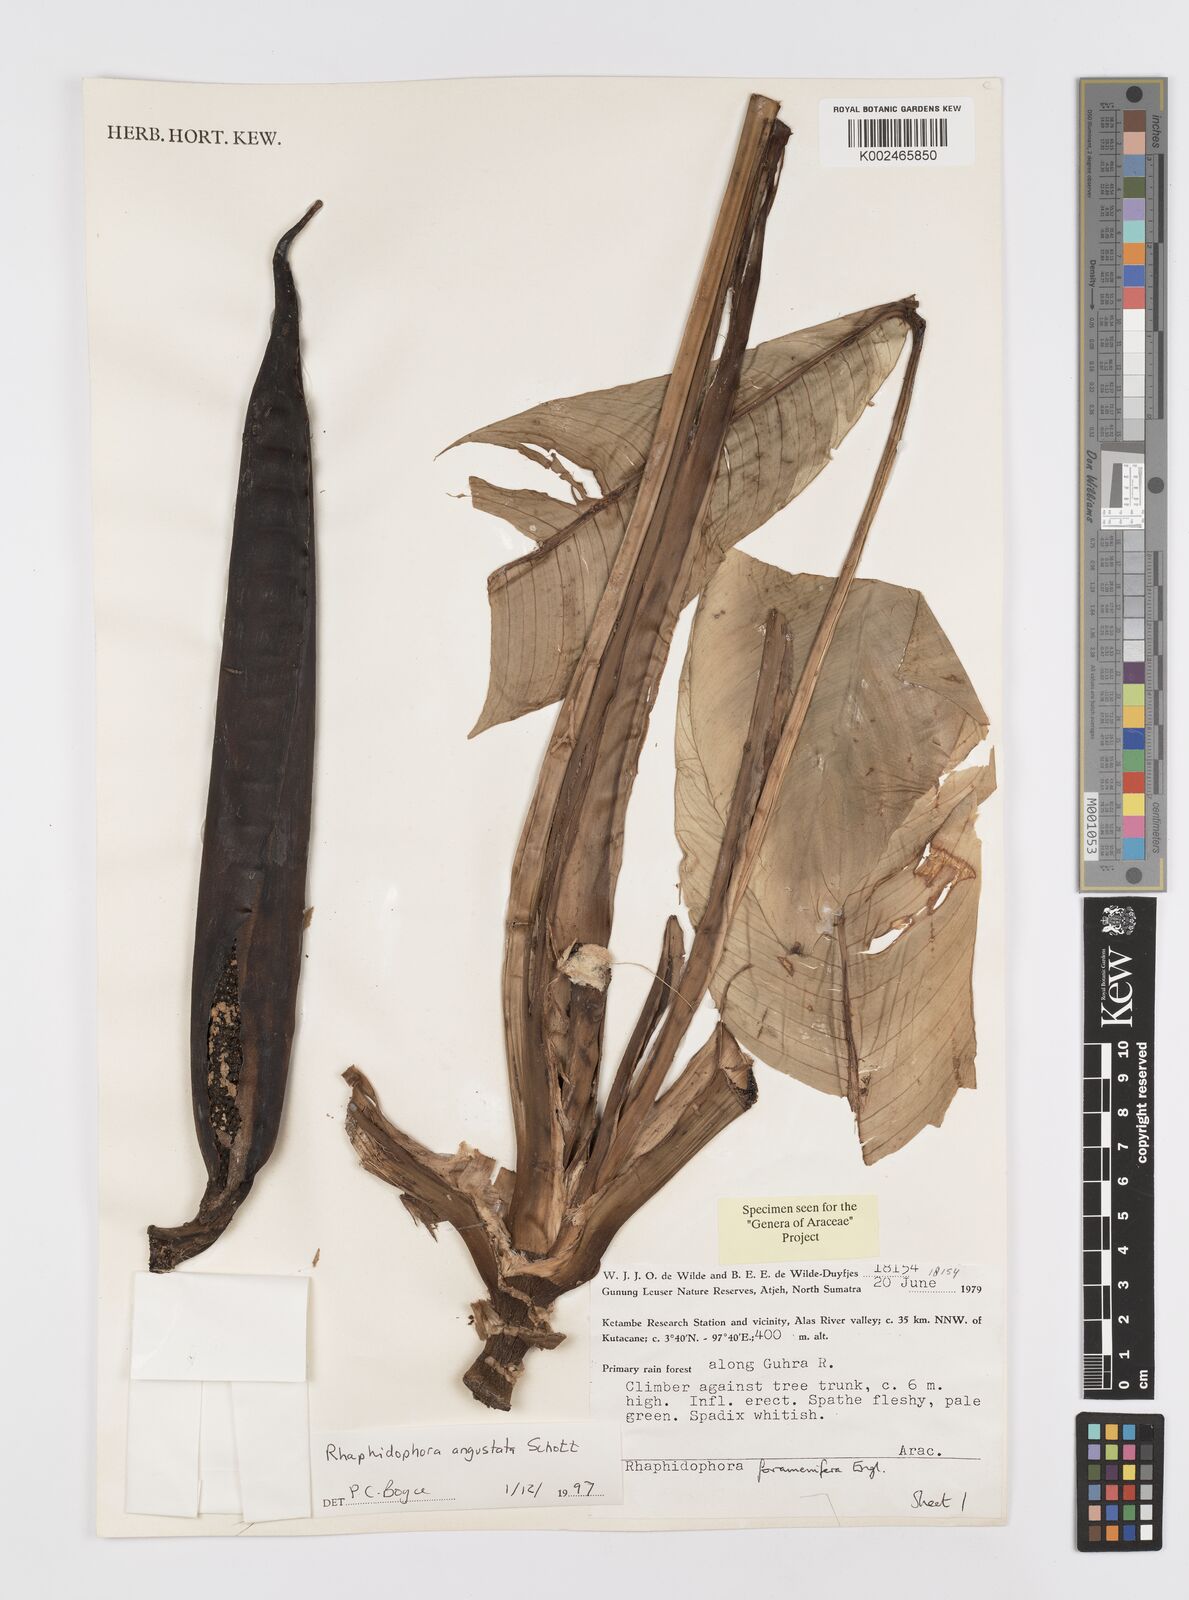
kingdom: Plantae
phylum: Tracheophyta
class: Liliopsida
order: Alismatales
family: Araceae
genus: Rhaphidophora
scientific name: Rhaphidophora angustata
